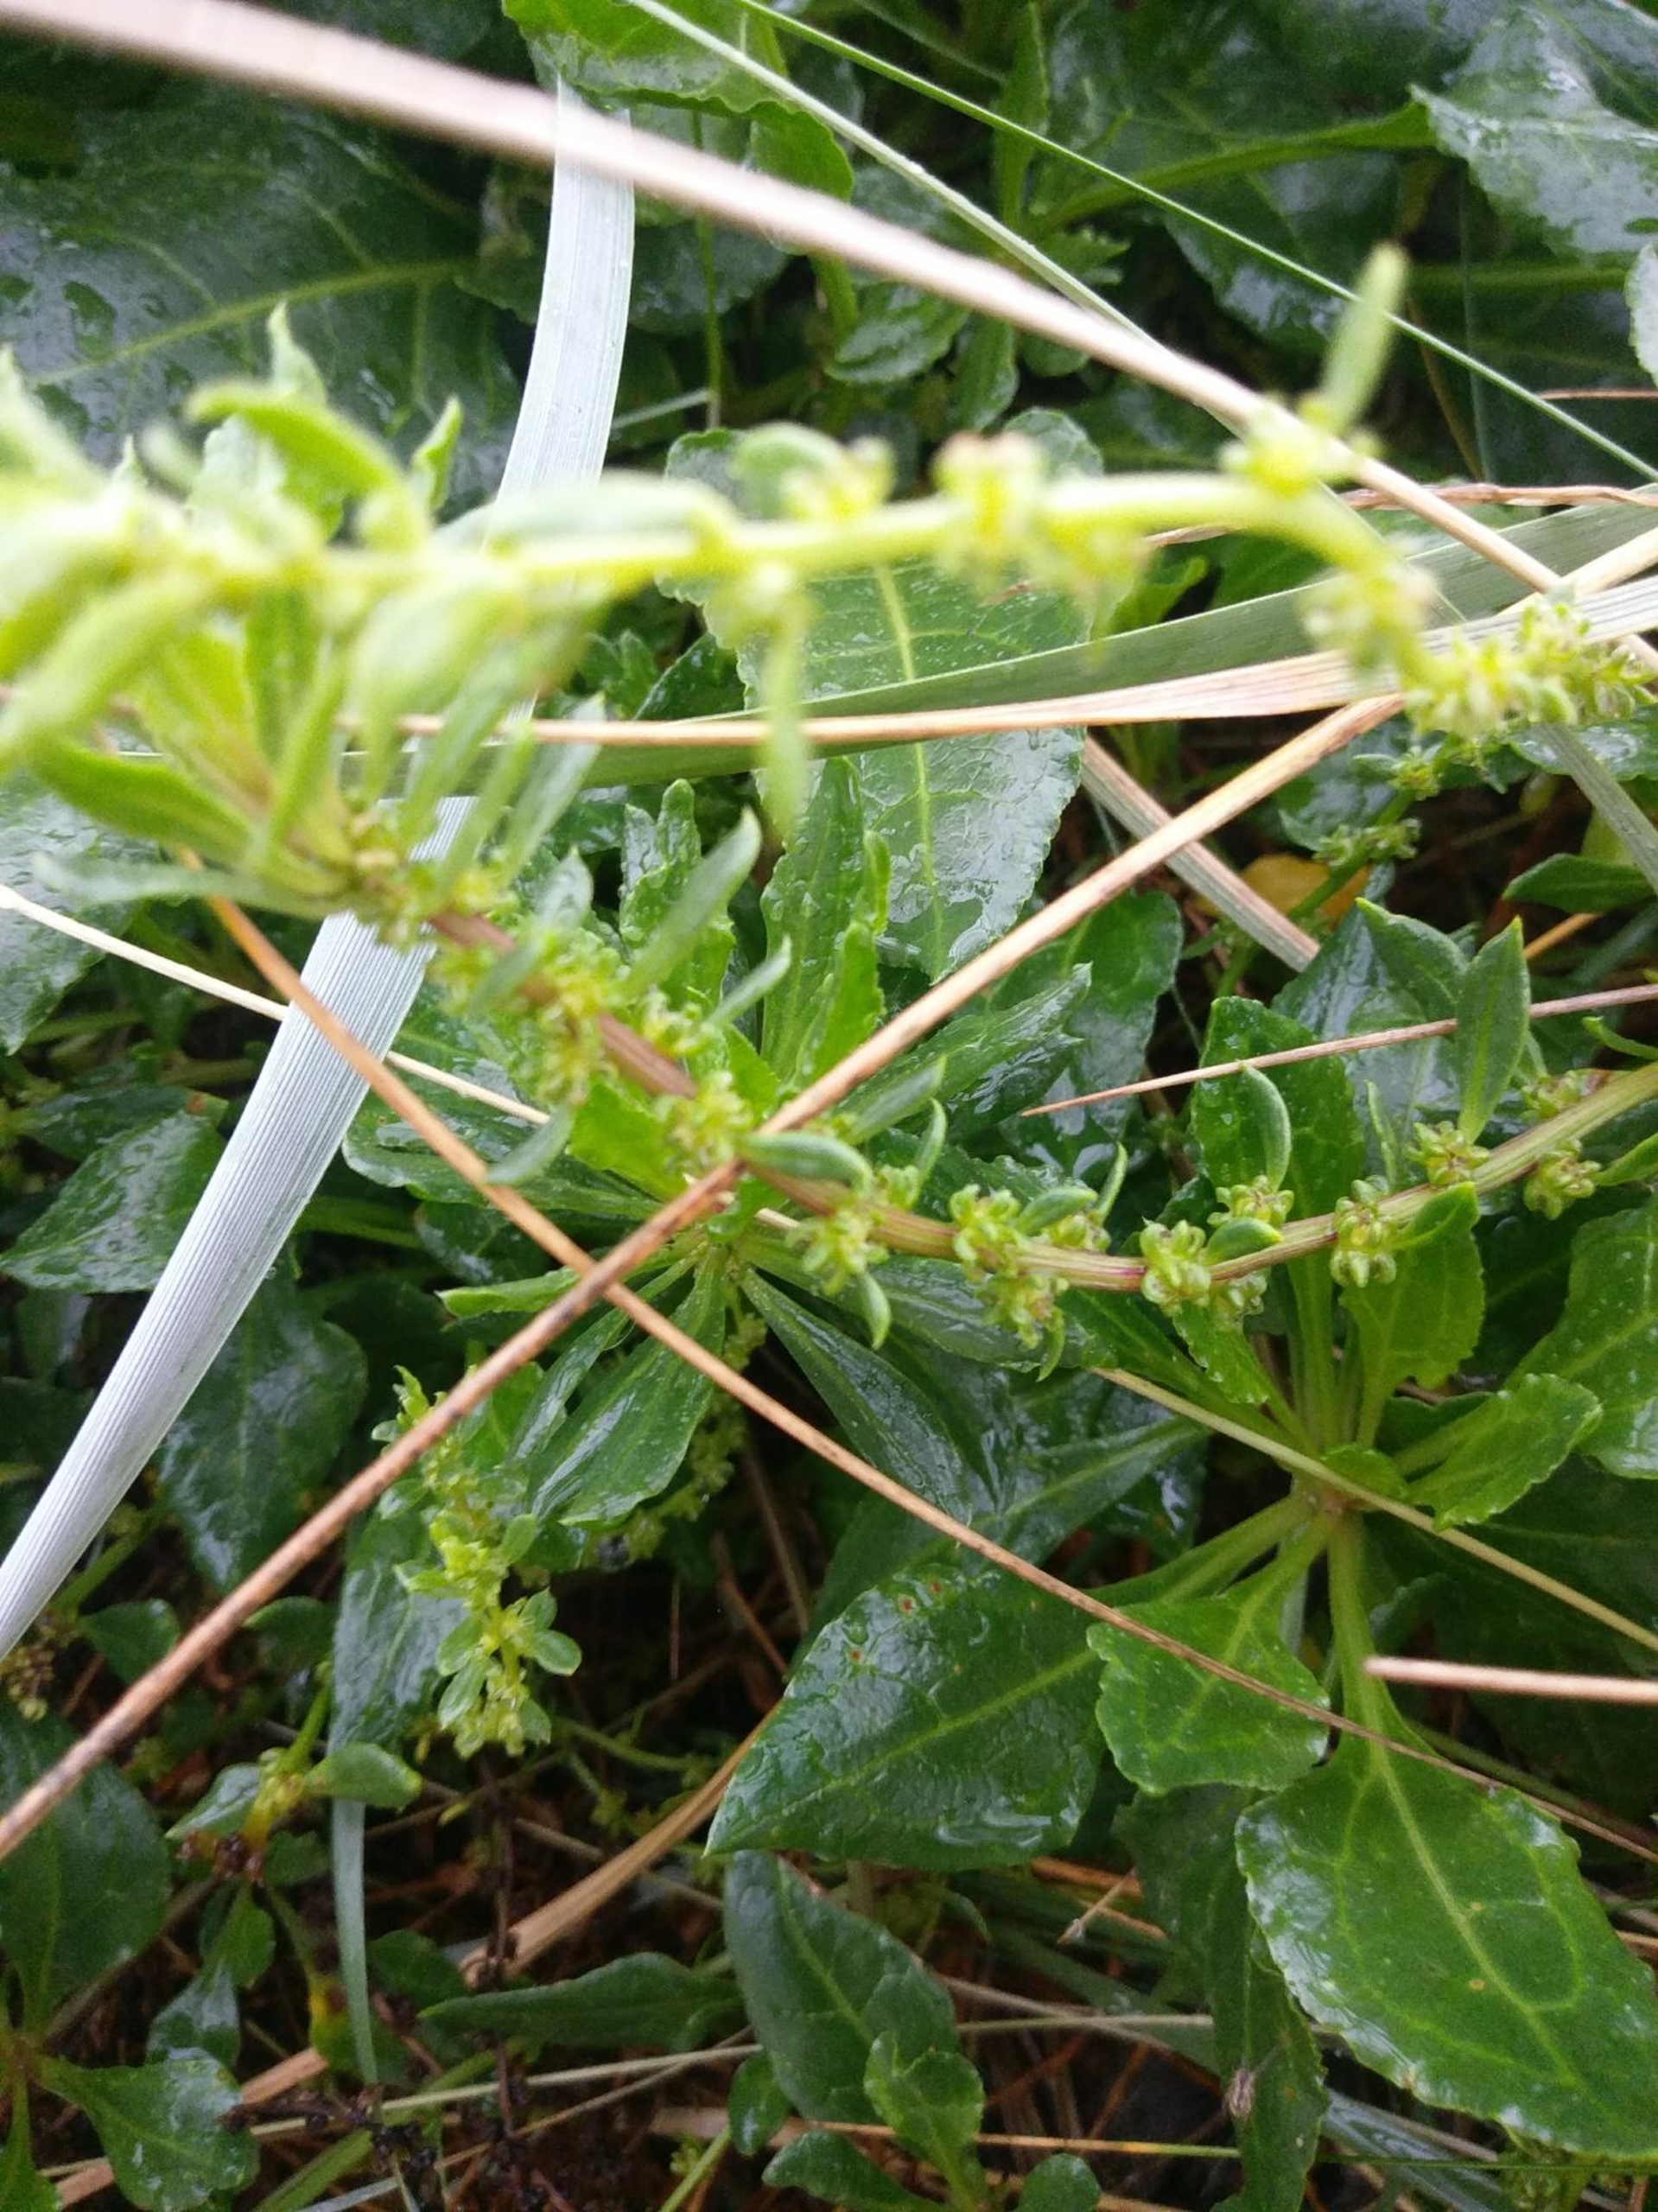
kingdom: Plantae
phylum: Tracheophyta
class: Magnoliopsida
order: Caryophyllales
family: Amaranthaceae
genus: Beta
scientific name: Beta maritima
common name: Strand-bede
